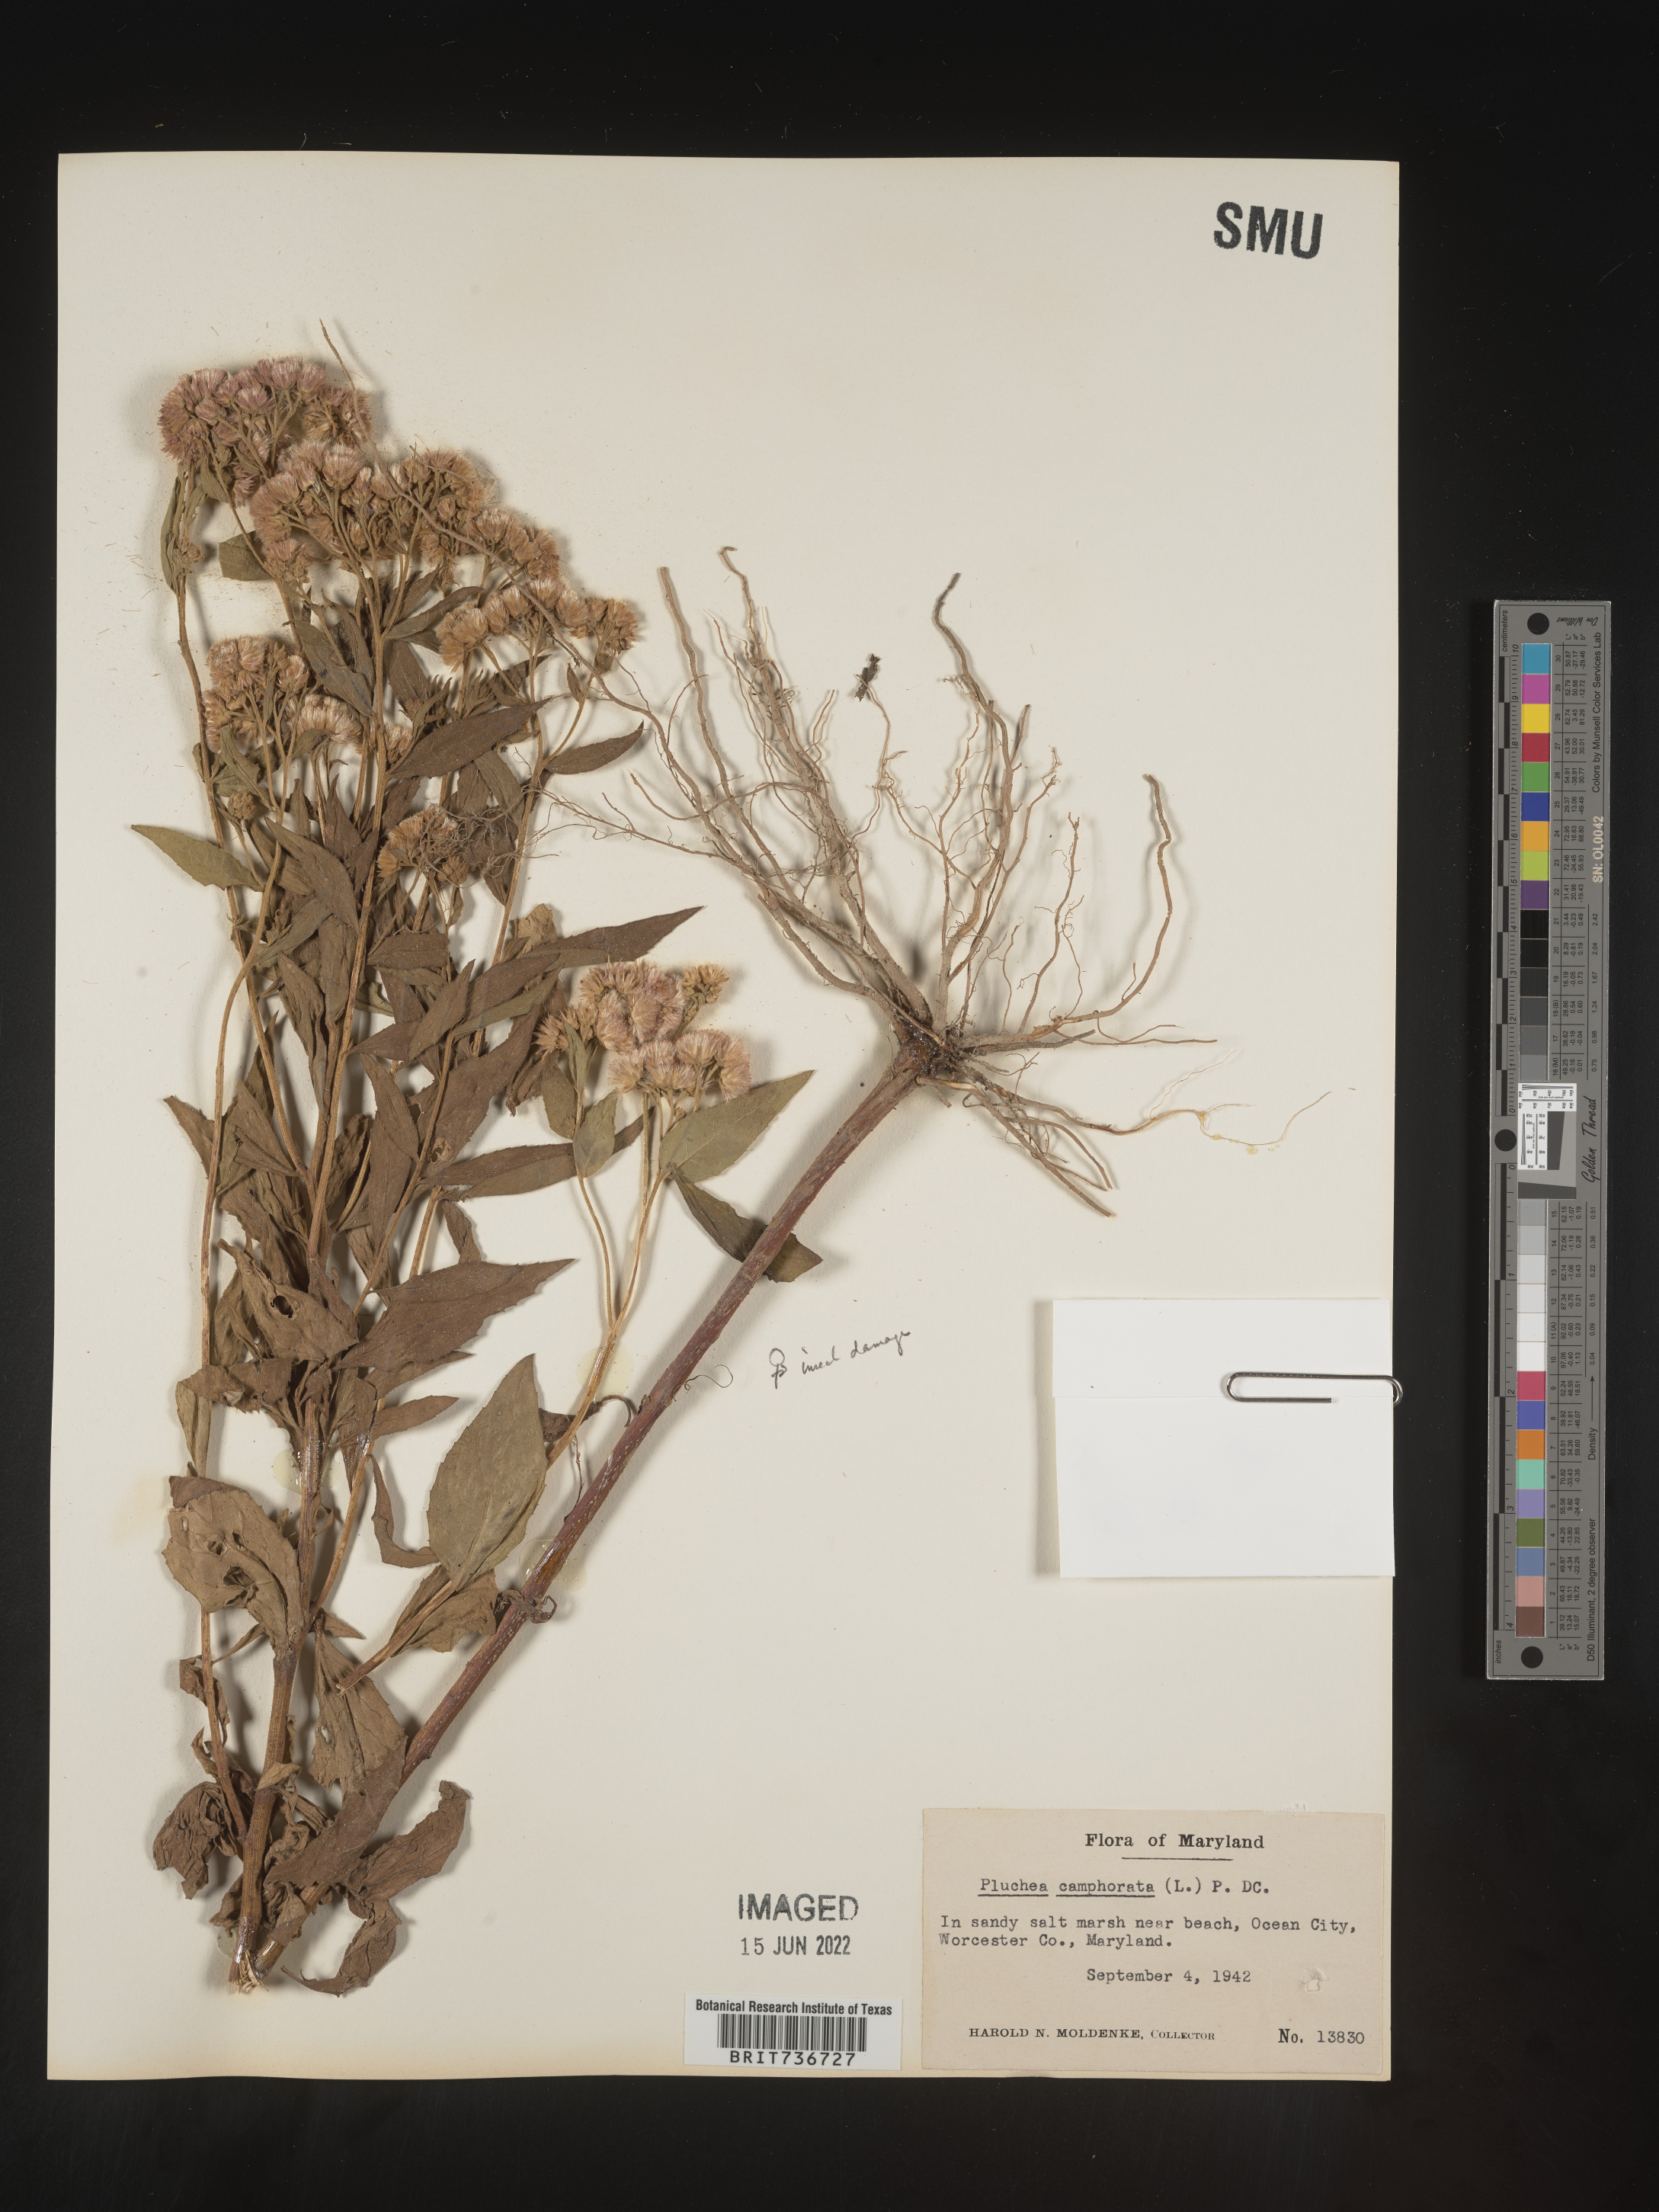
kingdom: Plantae
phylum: Tracheophyta
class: Magnoliopsida
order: Asterales
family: Asteraceae
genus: Pluchea
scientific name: Pluchea odorata
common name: Saltmarsh fleabane
